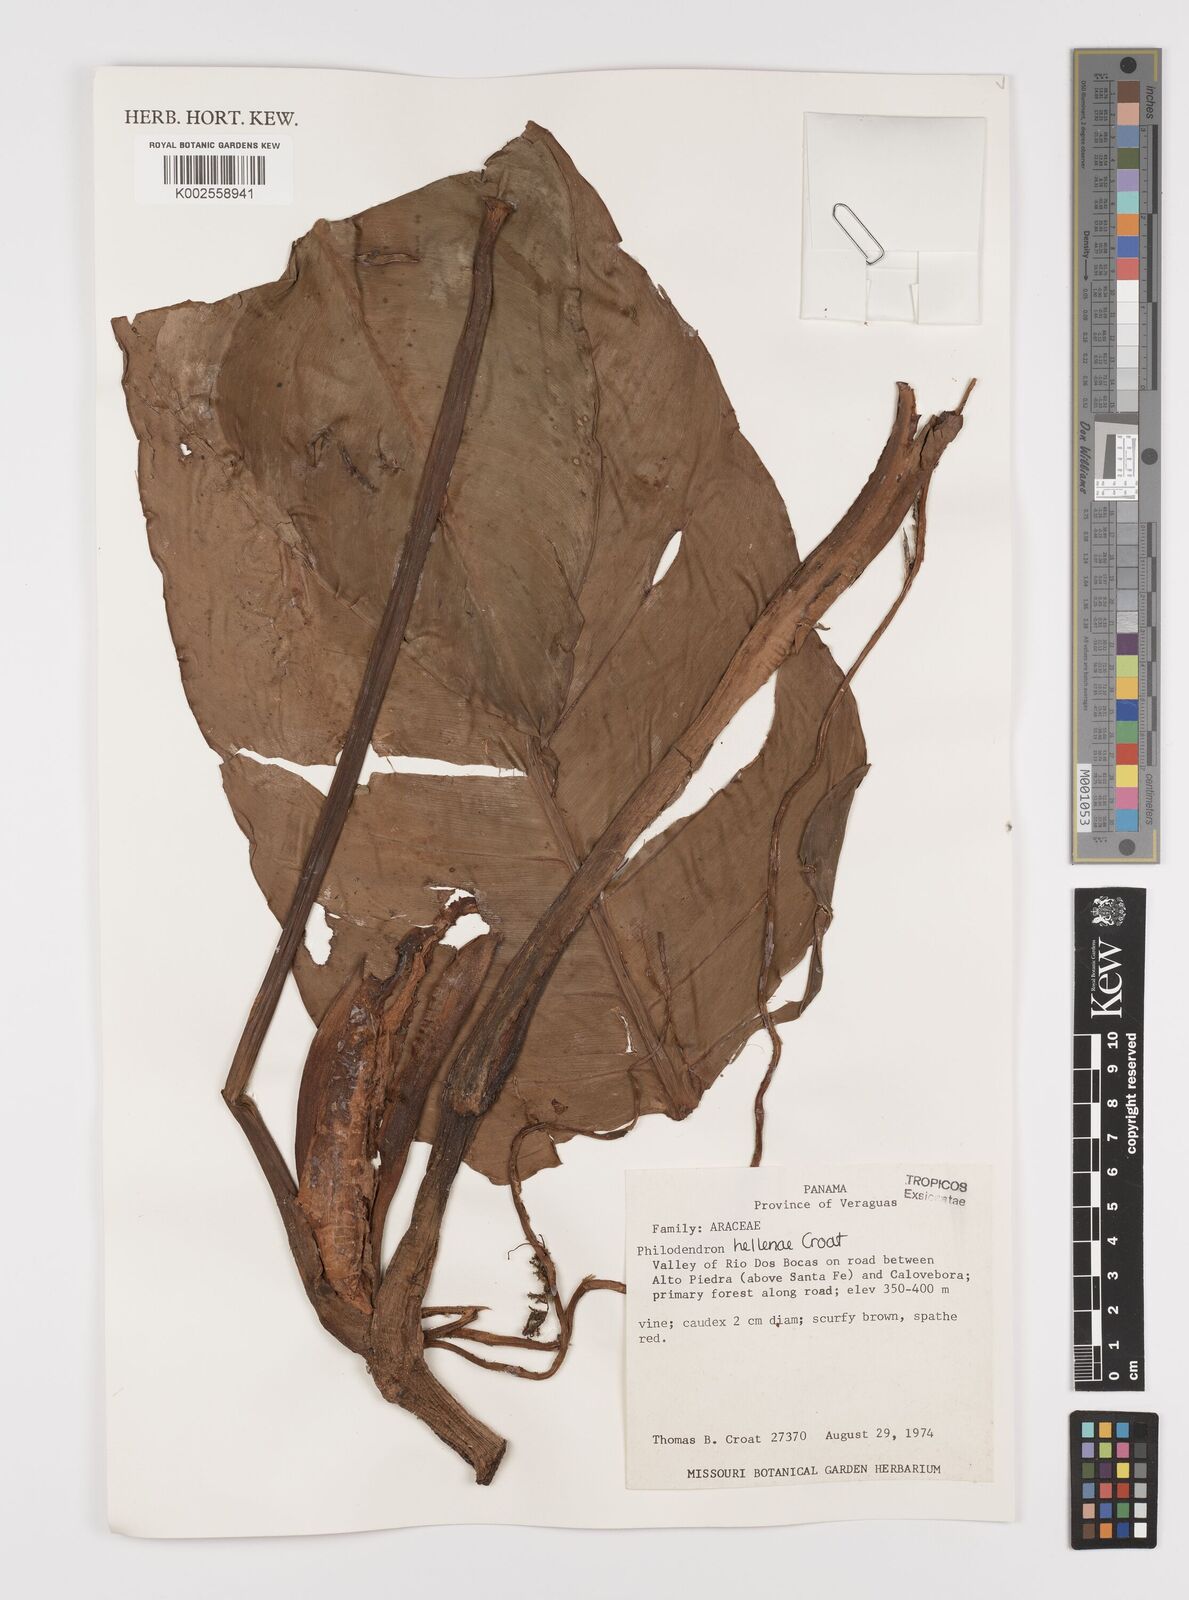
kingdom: Plantae
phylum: Tracheophyta
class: Liliopsida
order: Alismatales
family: Araceae
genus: Philodendron
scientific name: Philodendron heleniae
